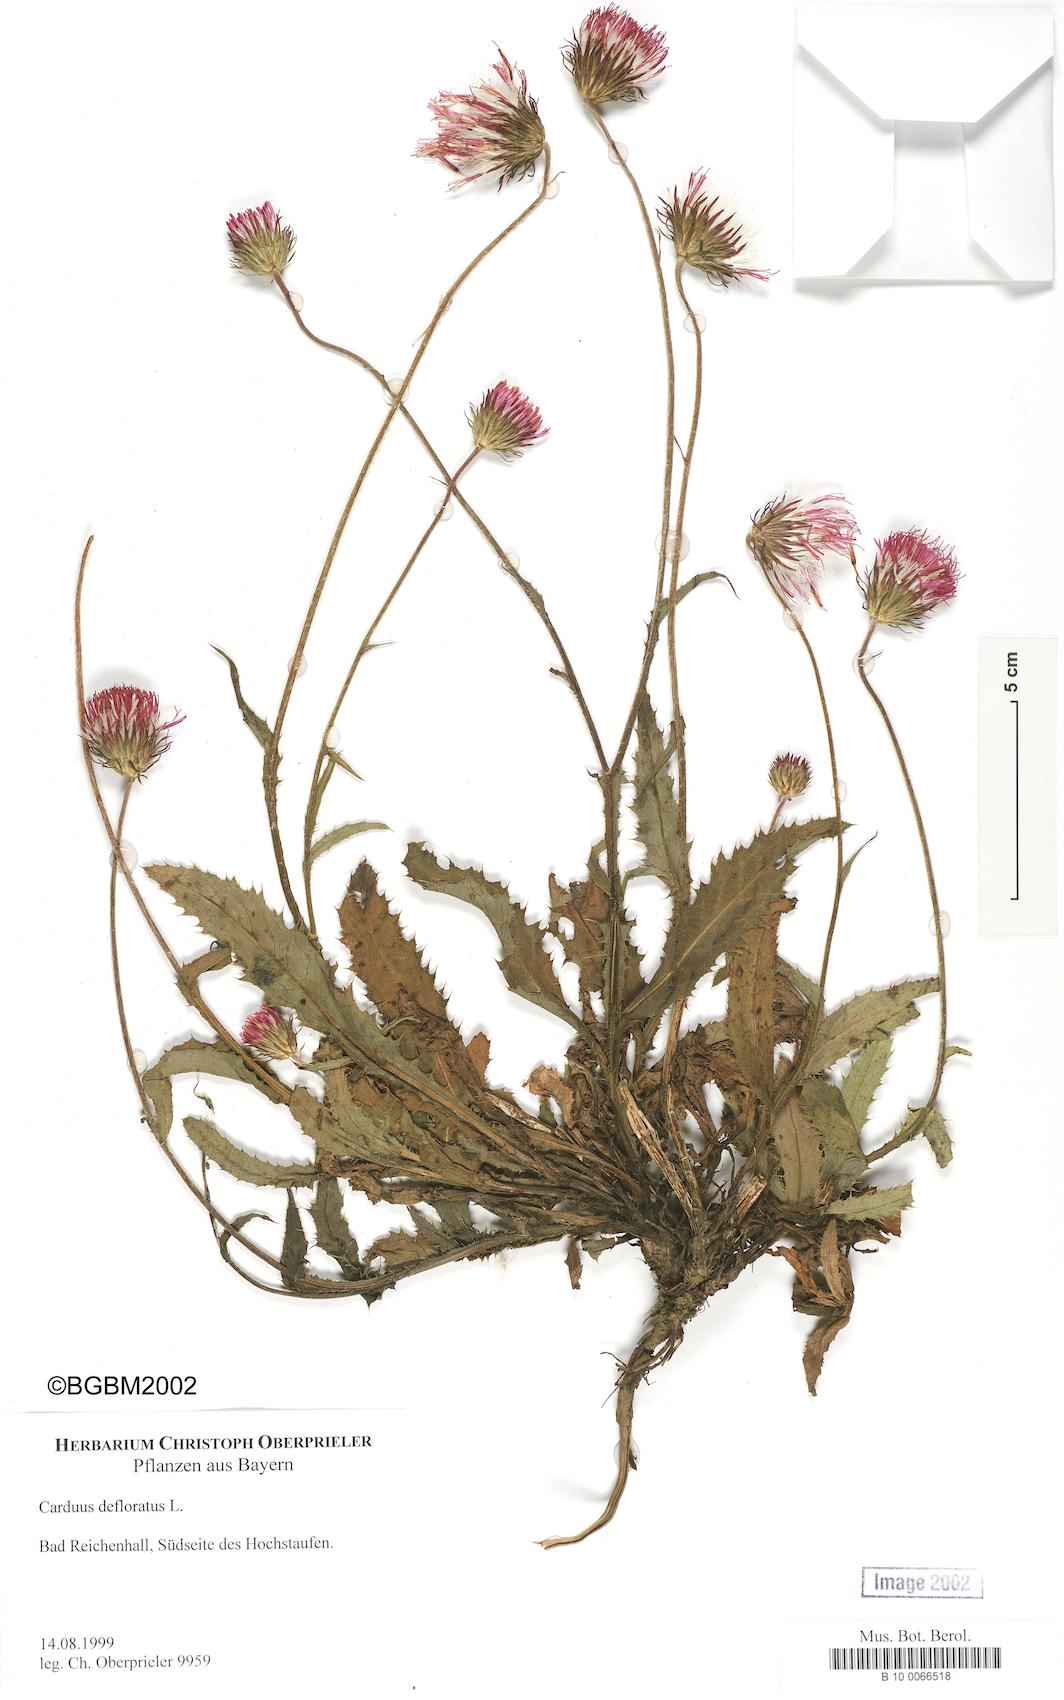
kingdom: Plantae
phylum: Tracheophyta
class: Magnoliopsida
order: Asterales
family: Asteraceae
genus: Carduus
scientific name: Carduus defloratus
